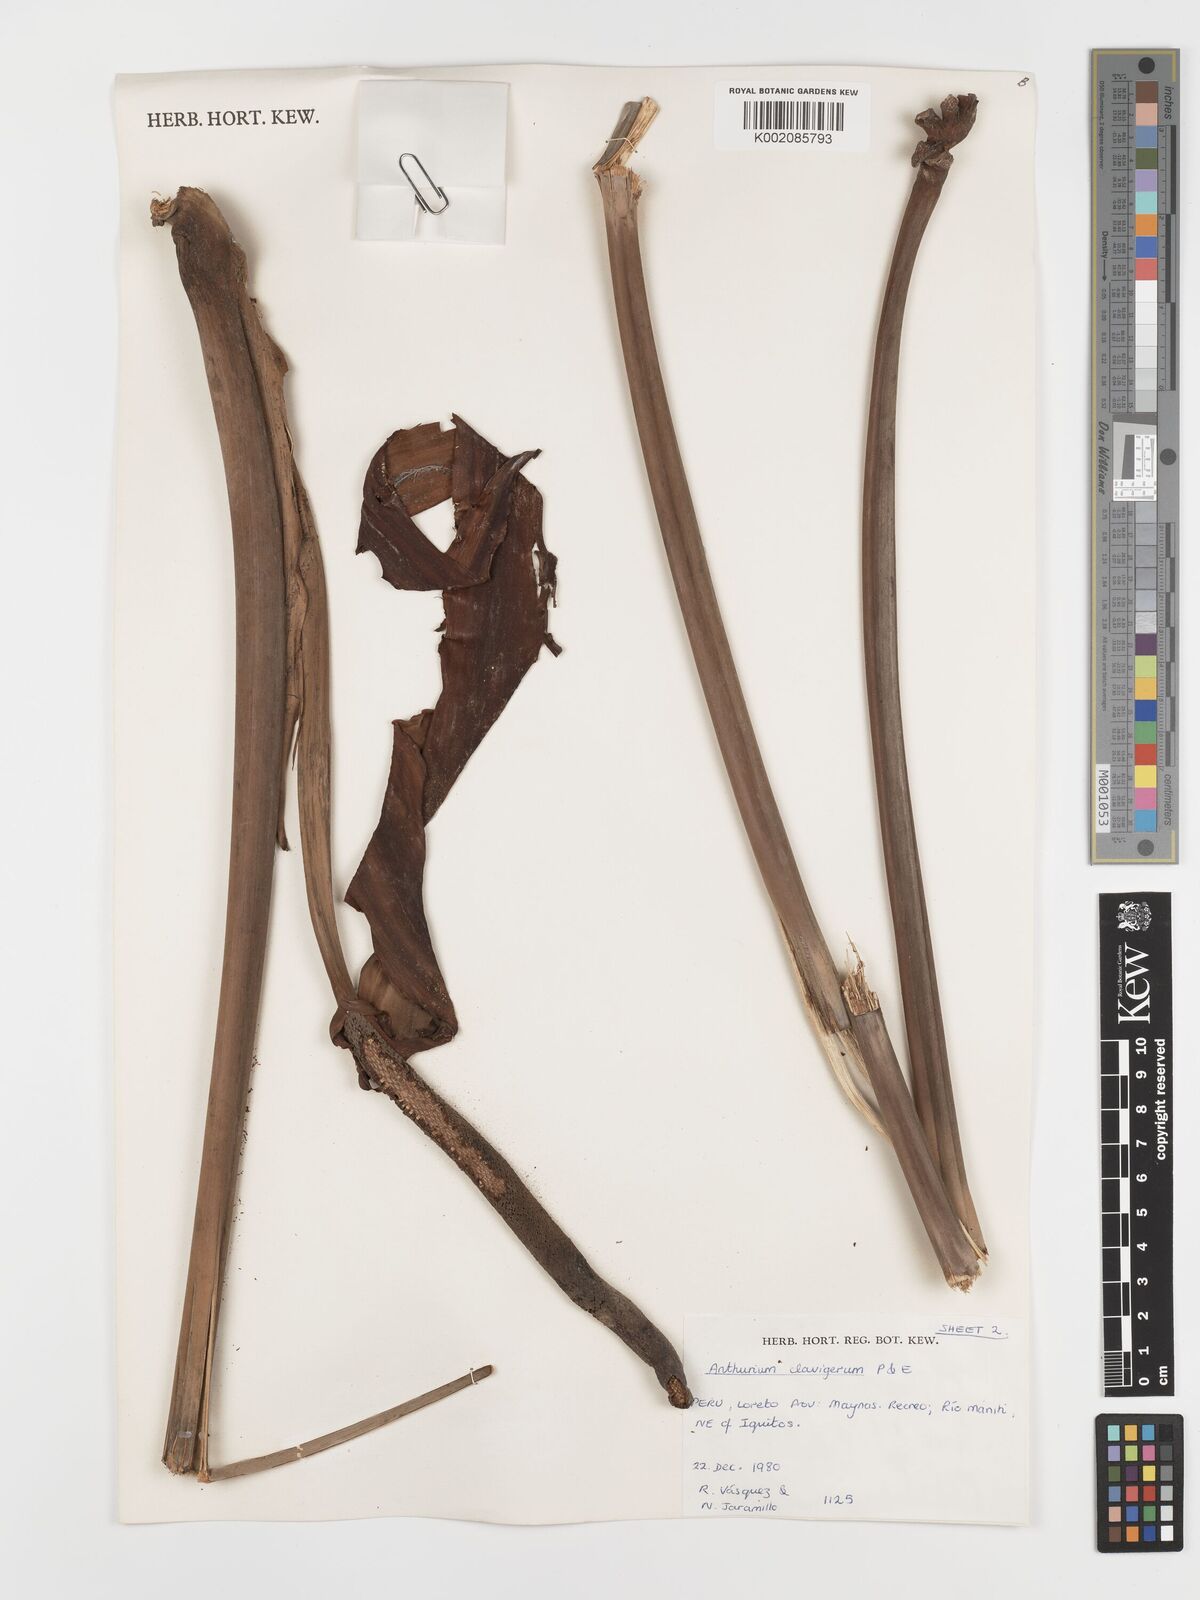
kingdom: Plantae
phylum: Tracheophyta
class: Liliopsida
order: Alismatales
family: Araceae
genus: Anthurium
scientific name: Anthurium clavigerum
